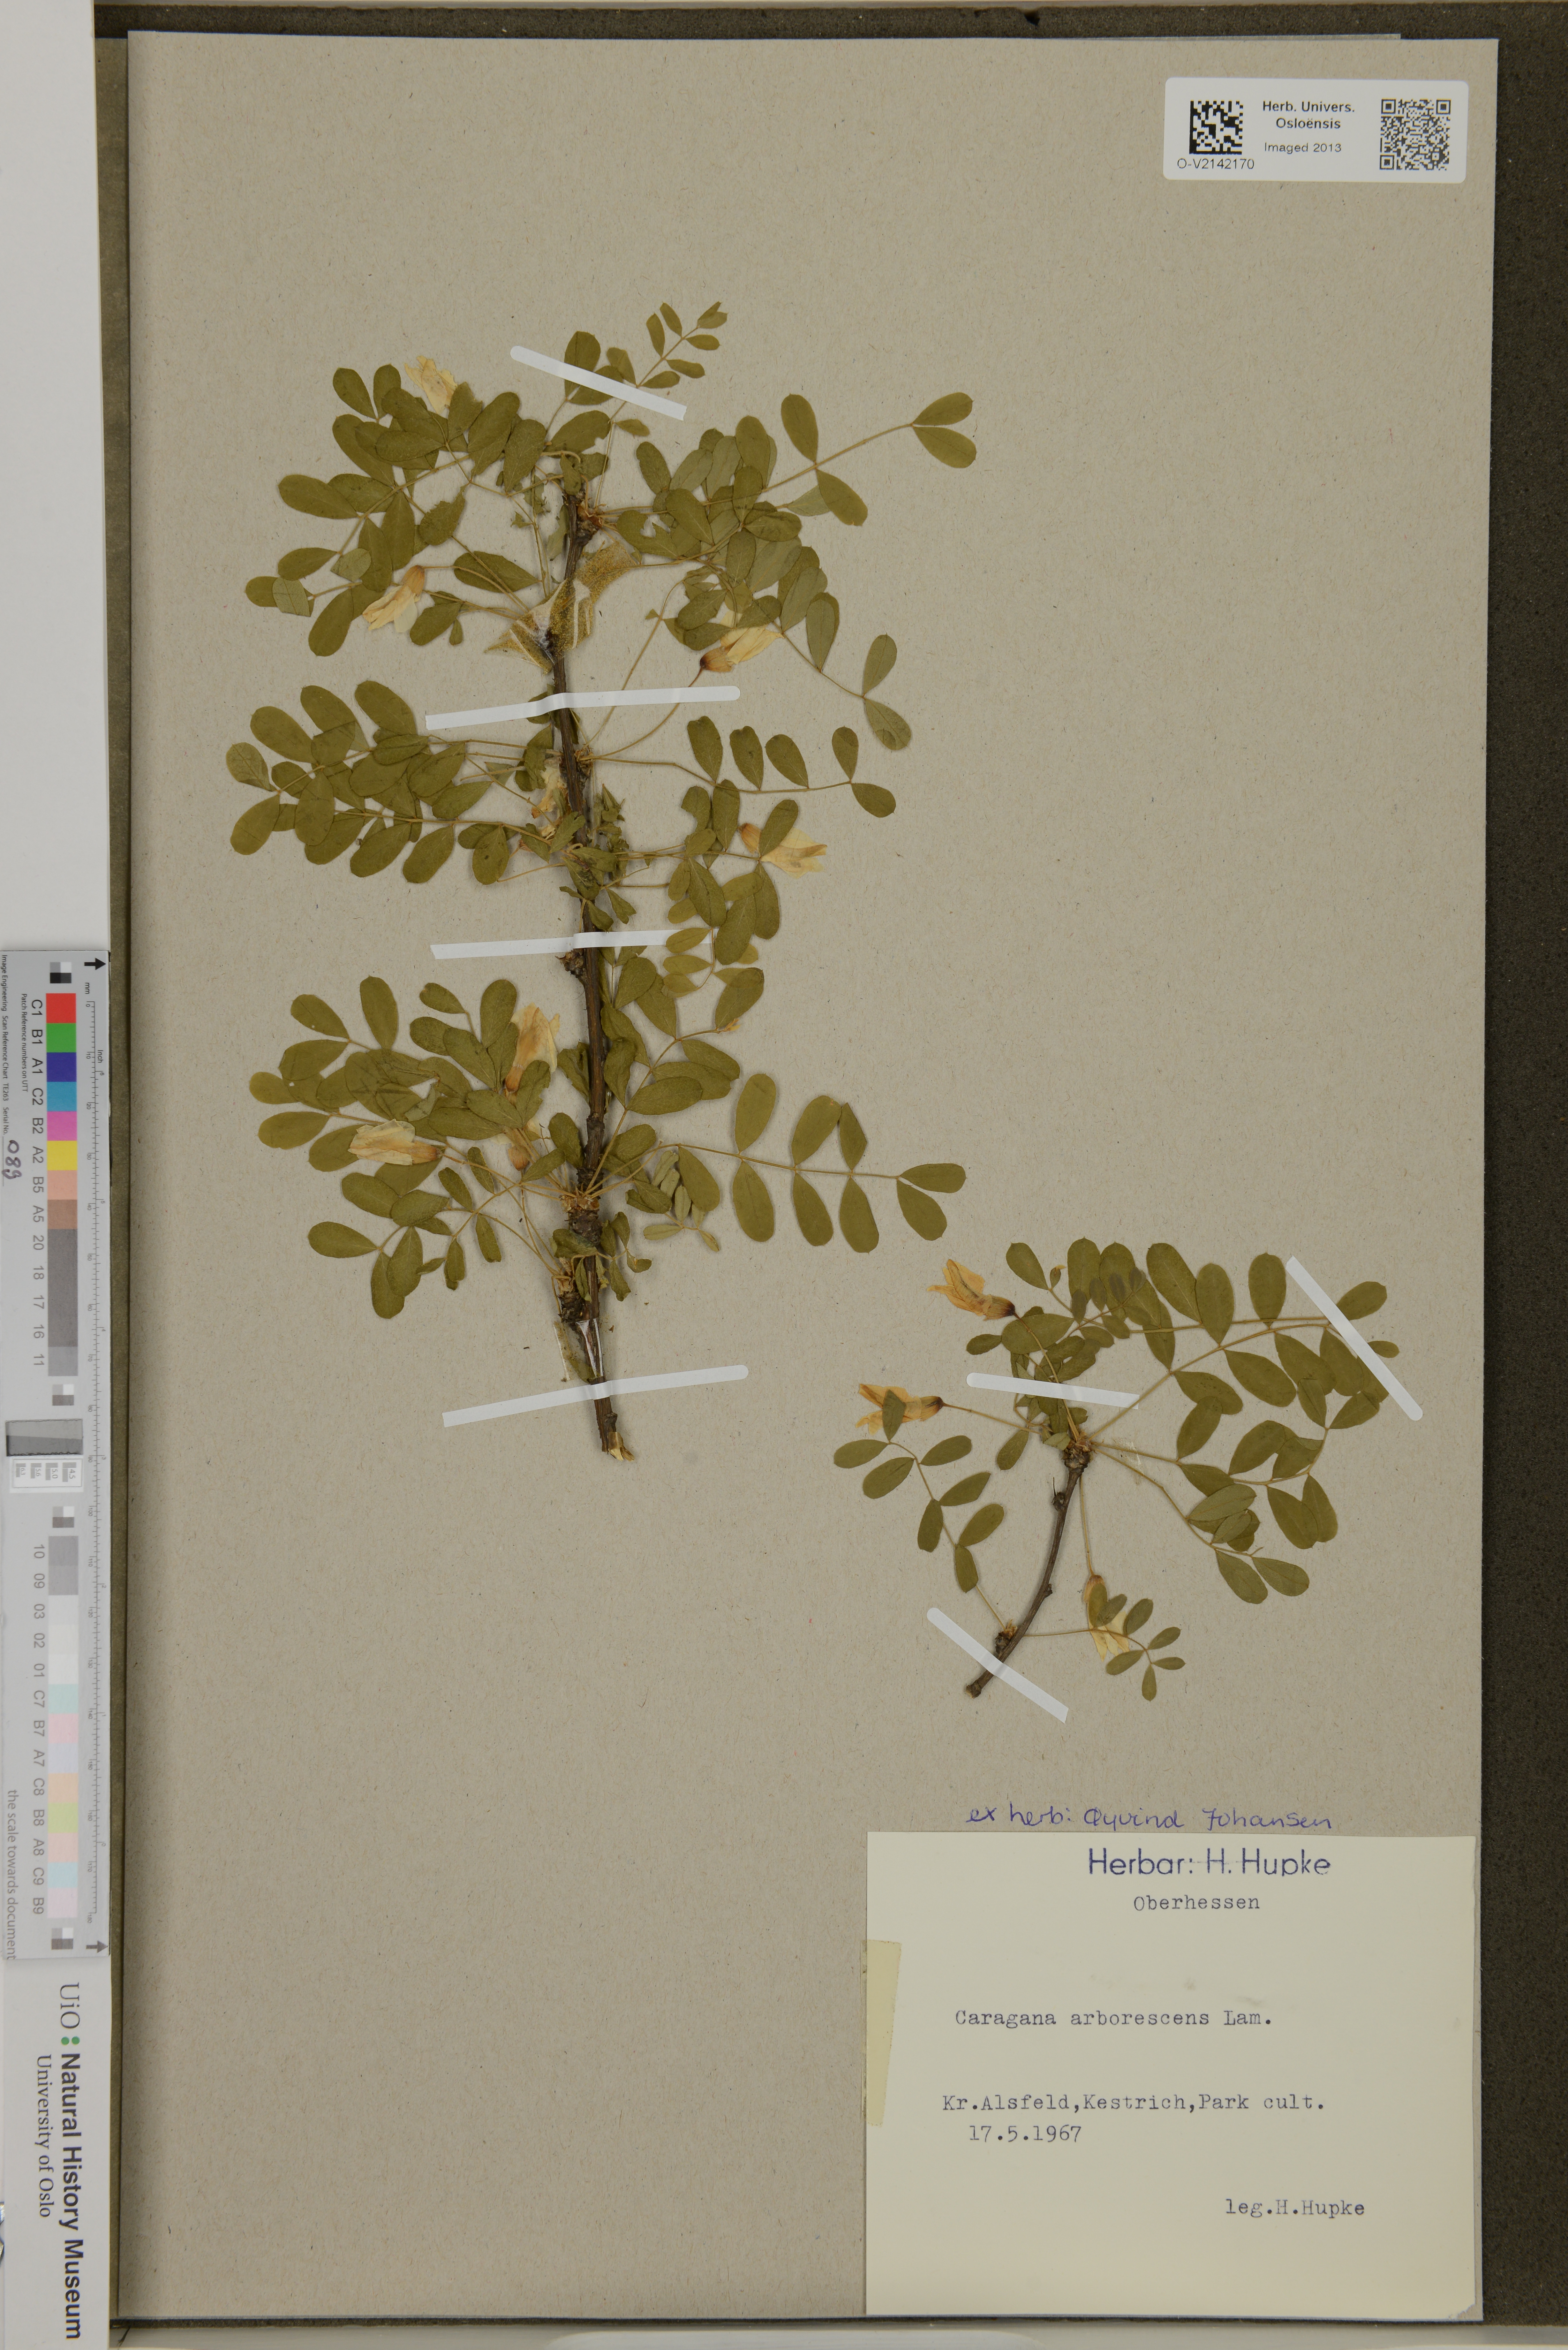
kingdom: Plantae
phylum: Tracheophyta
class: Magnoliopsida
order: Fabales
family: Fabaceae
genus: Caragana
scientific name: Caragana arborescens
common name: Siberian peashrub
